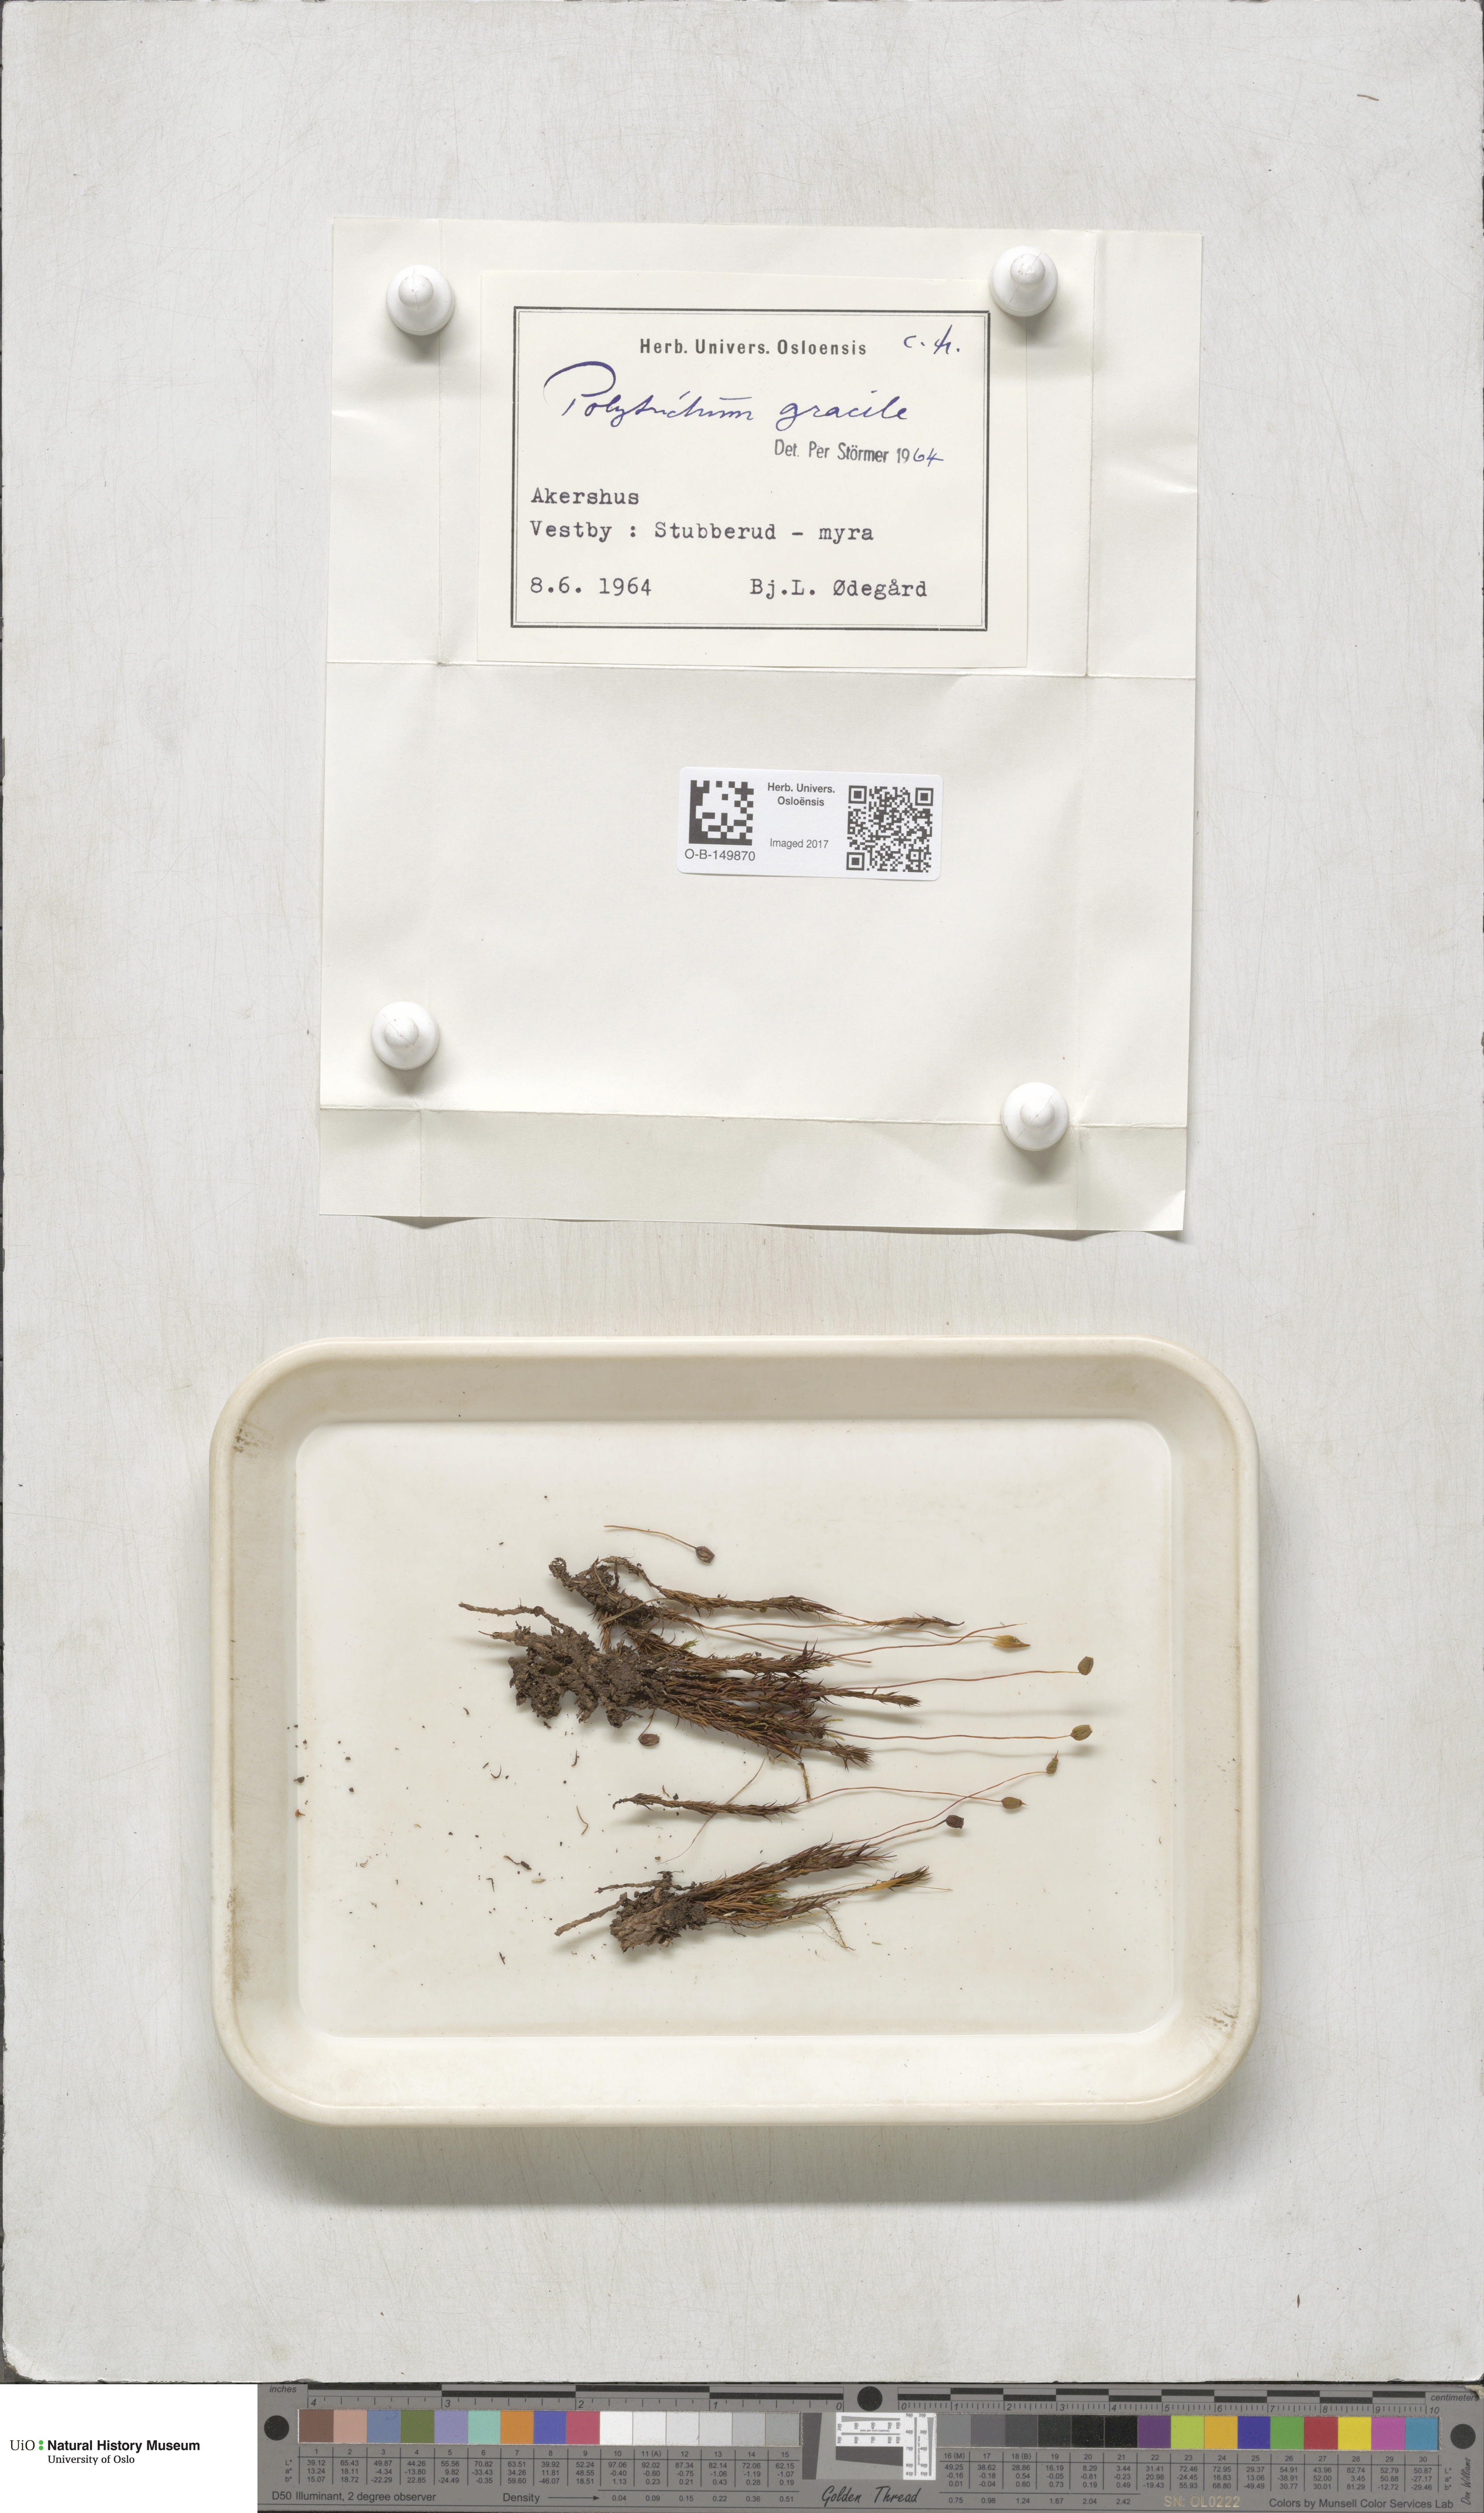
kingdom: Plantae
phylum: Bryophyta
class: Polytrichopsida
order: Polytrichales
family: Polytrichaceae
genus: Polytrichum
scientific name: Polytrichum longisetum
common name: Long-stalked haircap moss
